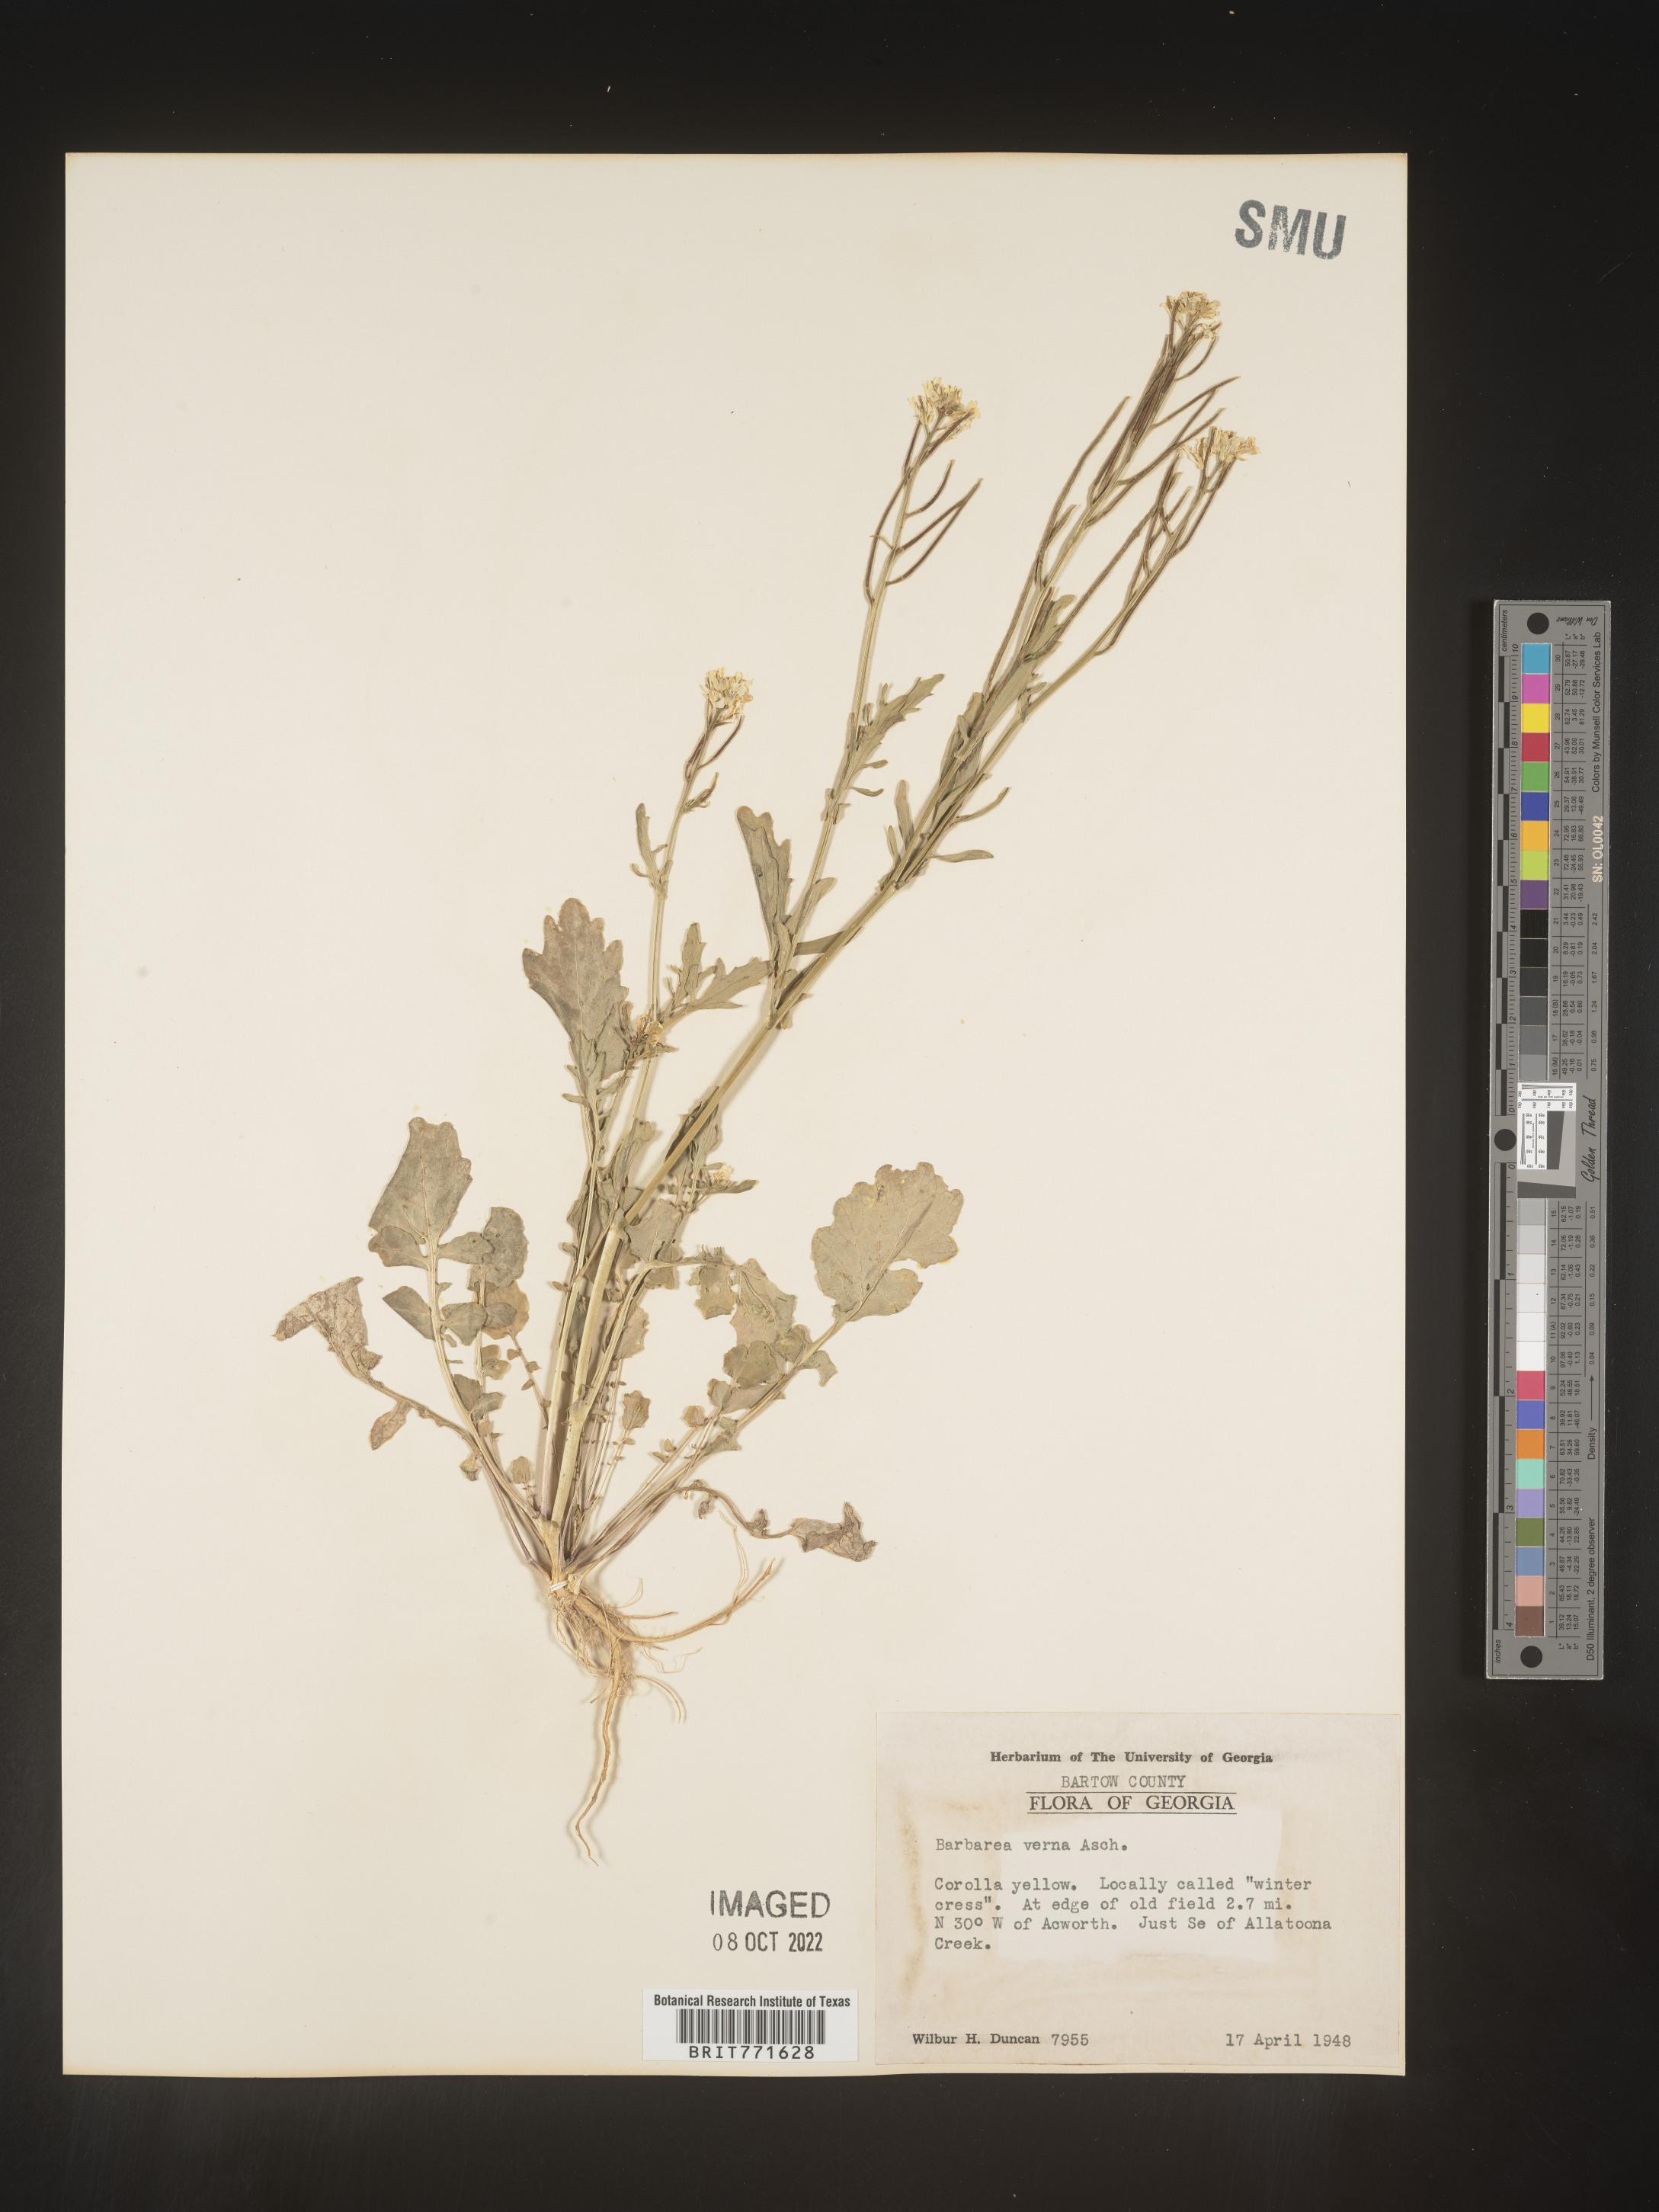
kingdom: Plantae
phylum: Tracheophyta
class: Magnoliopsida
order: Brassicales
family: Brassicaceae
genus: Barbarea
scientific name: Barbarea verna
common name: American cress
